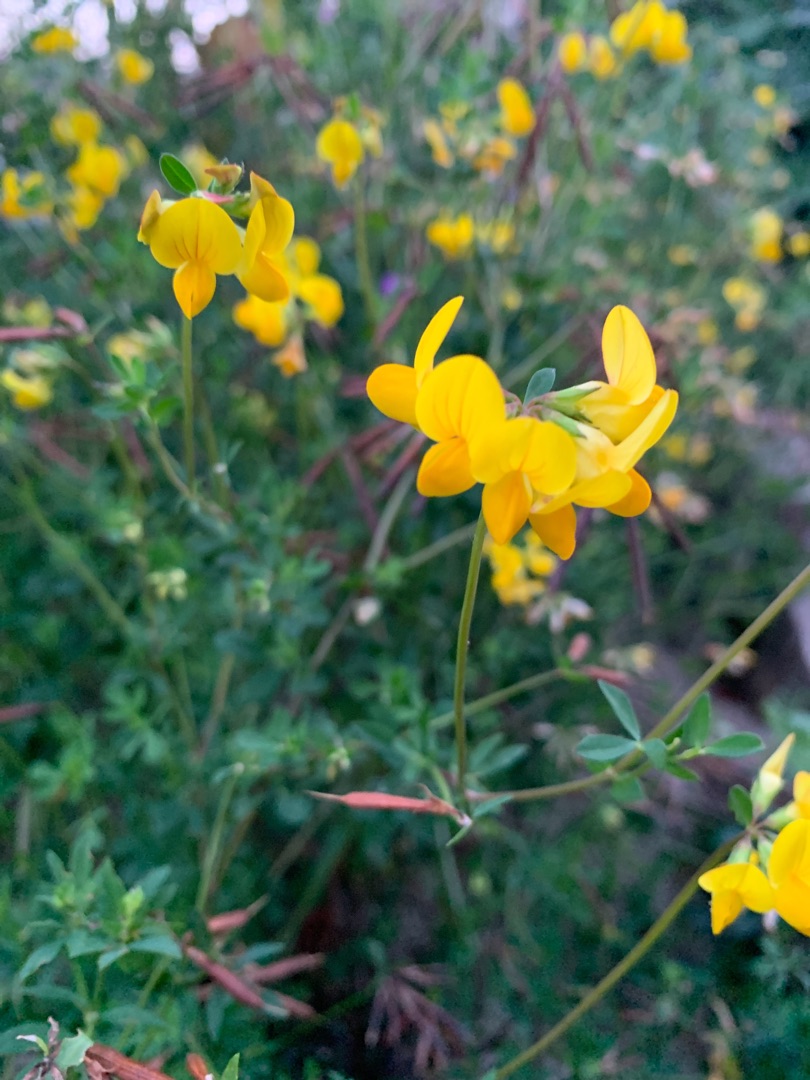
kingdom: Plantae
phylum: Tracheophyta
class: Magnoliopsida
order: Fabales
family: Fabaceae
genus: Lotus
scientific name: Lotus corniculatus
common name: Almindelig kællingetand
